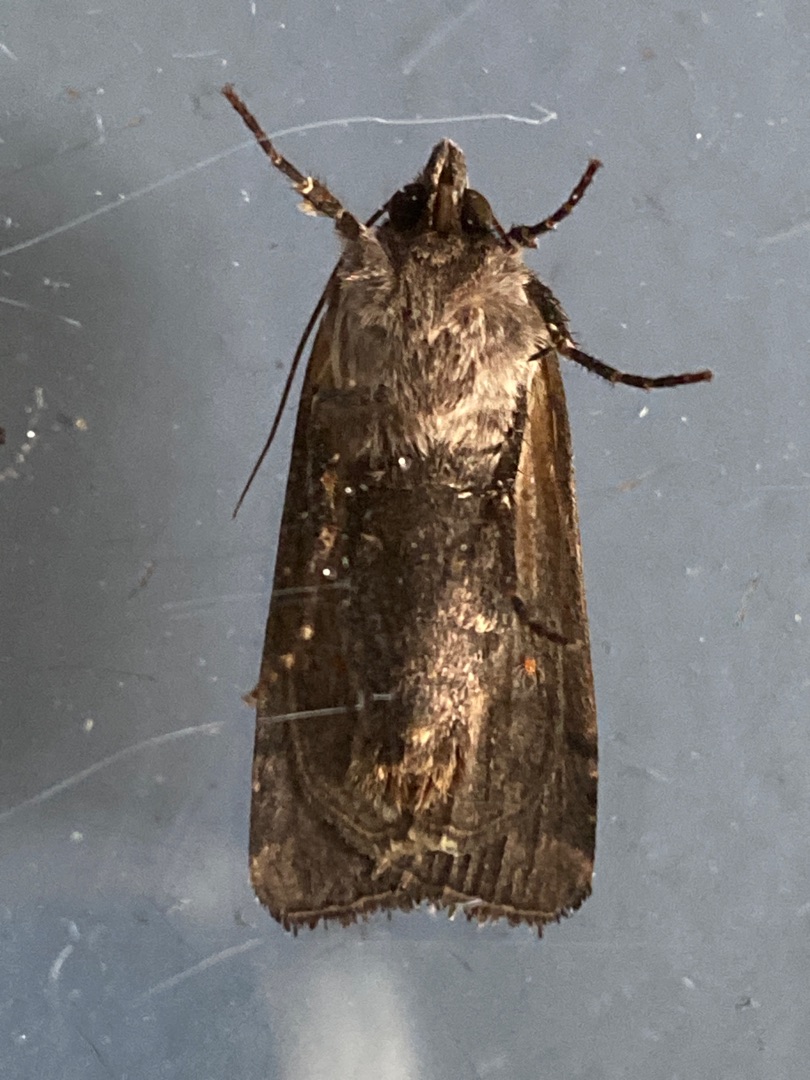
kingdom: Animalia
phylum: Arthropoda
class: Insecta
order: Lepidoptera
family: Noctuidae
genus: Xestia
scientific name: Xestia c-nigrum
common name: Det sorte c
